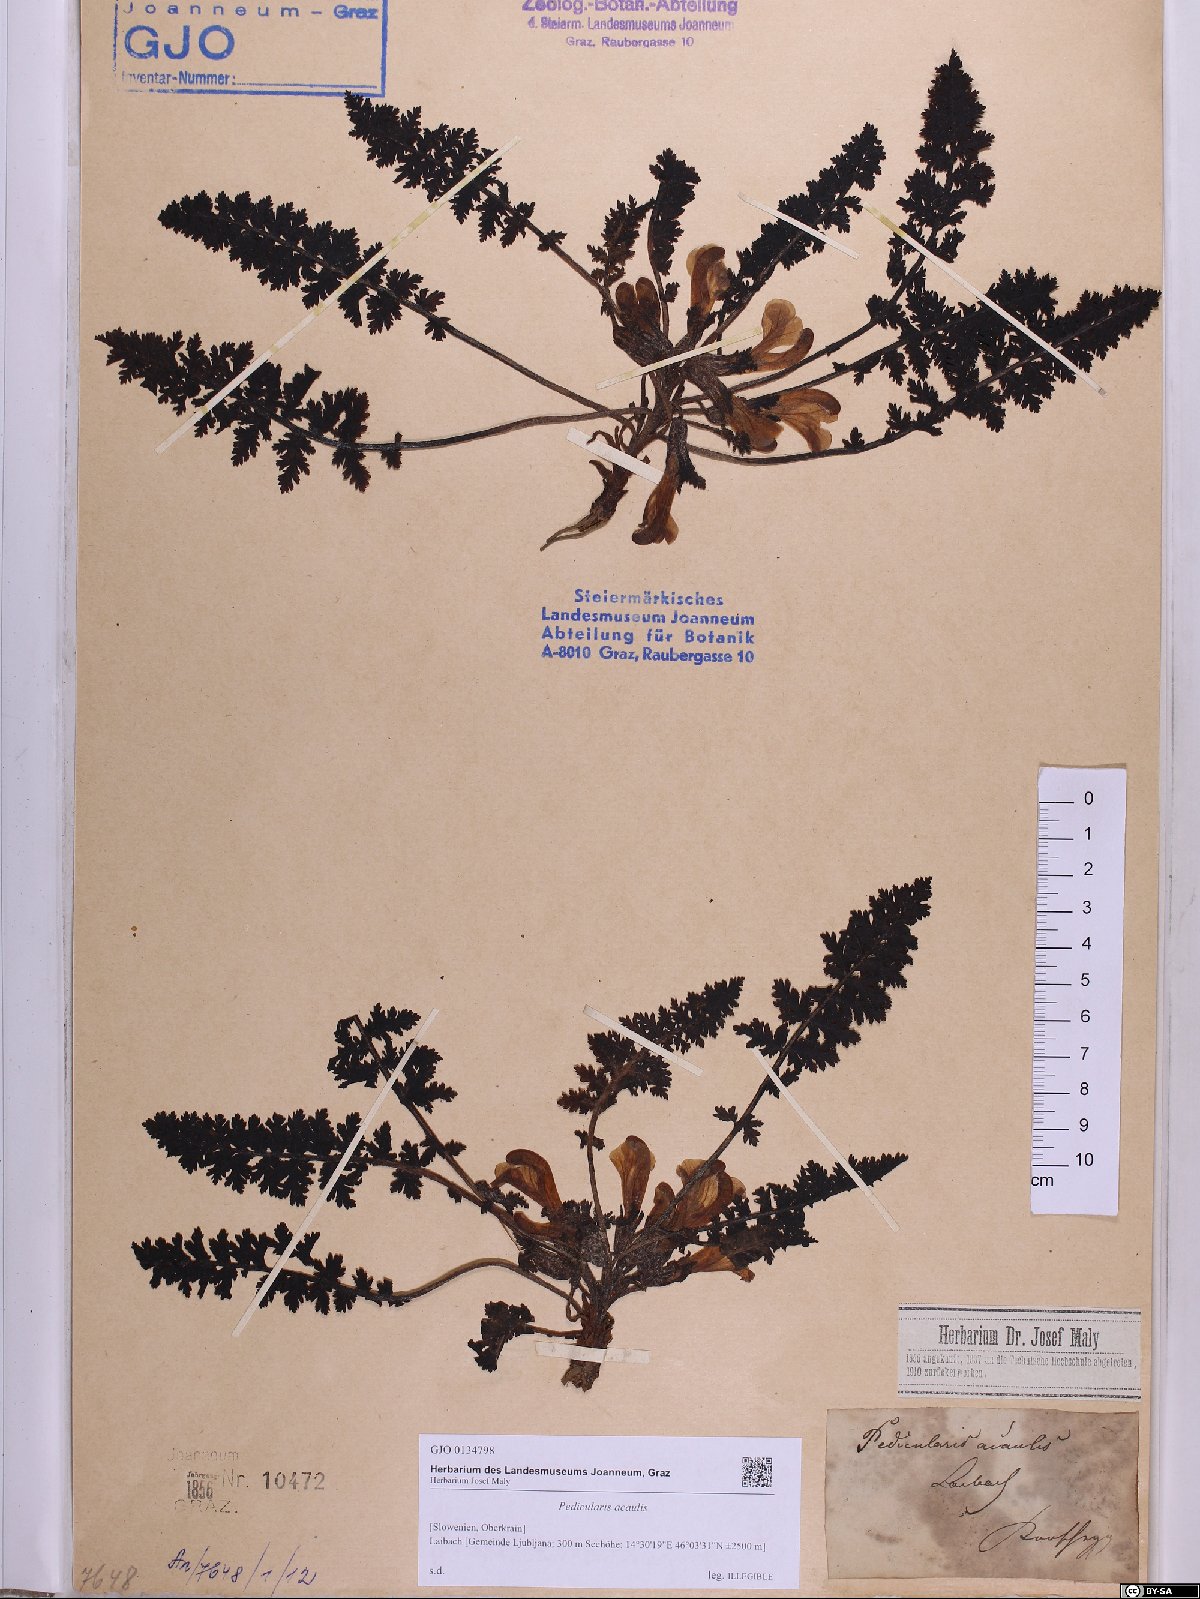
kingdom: Plantae
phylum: Tracheophyta
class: Magnoliopsida
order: Lamiales
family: Orobanchaceae
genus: Pedicularis
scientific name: Pedicularis acaulis
